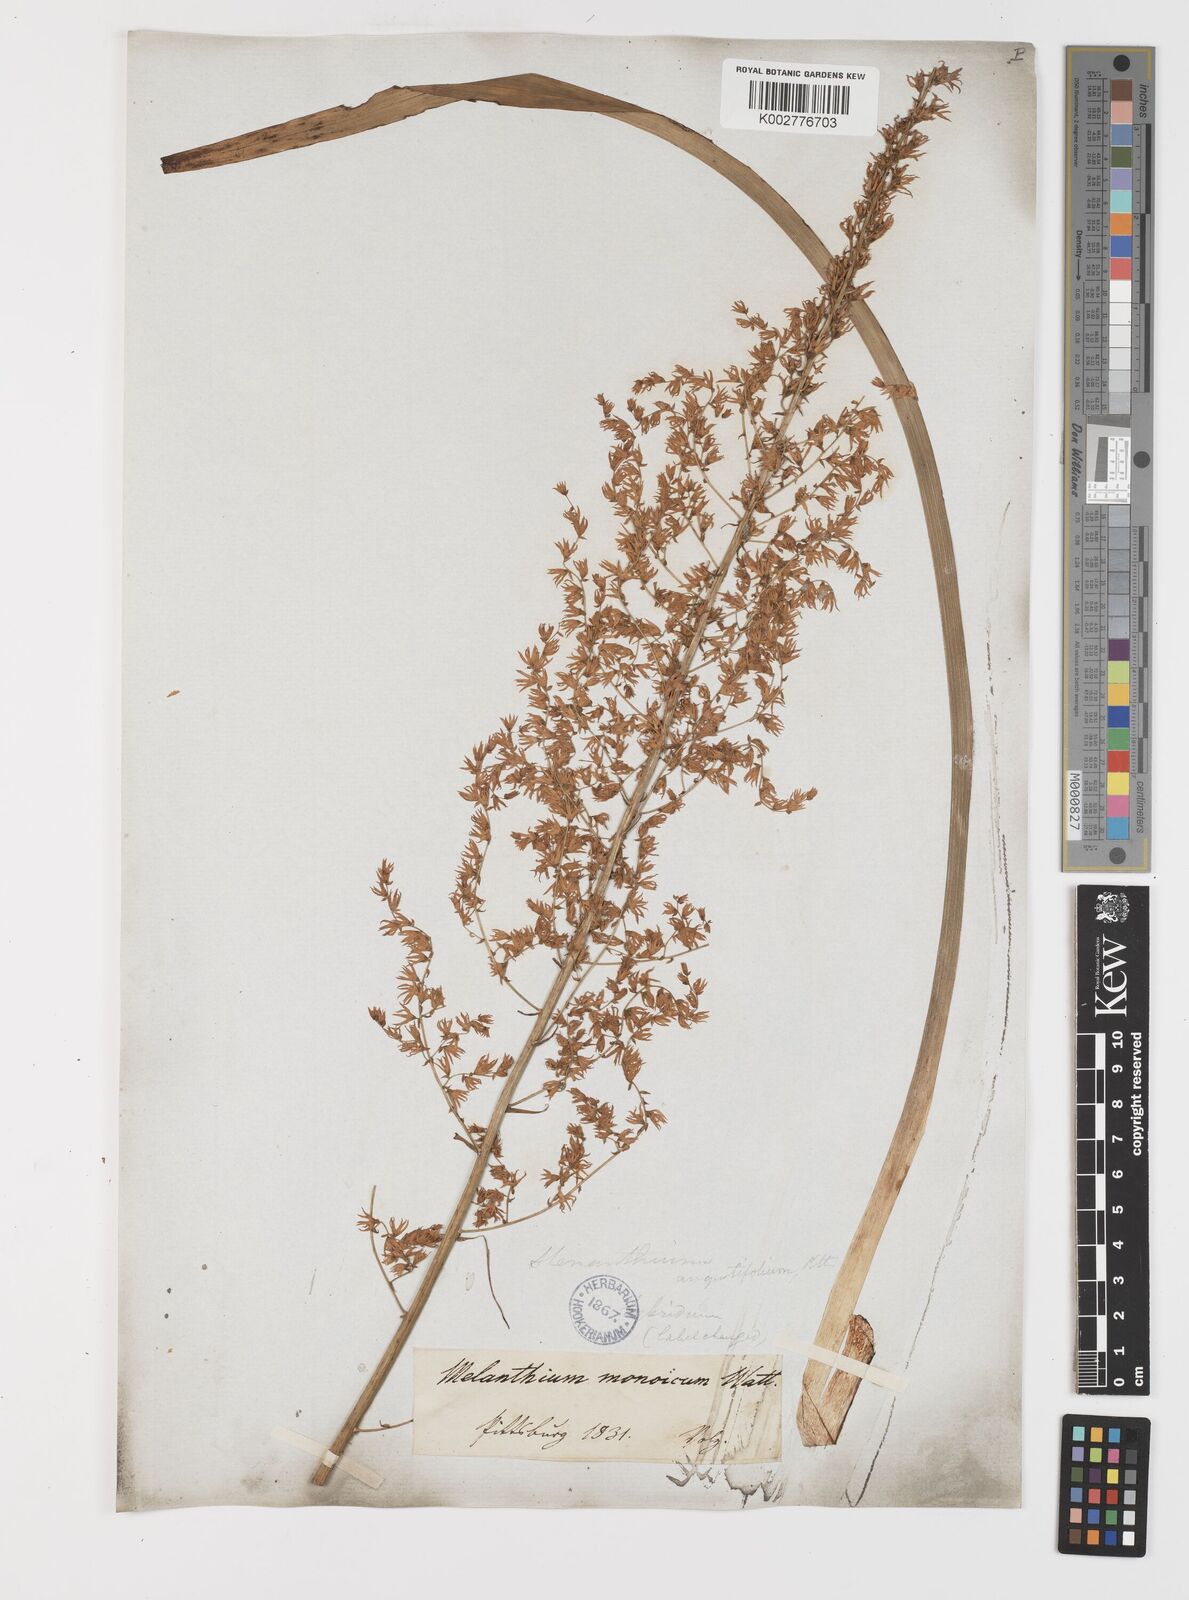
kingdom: Plantae
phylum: Tracheophyta
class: Liliopsida
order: Liliales
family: Melanthiaceae
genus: Stenanthium
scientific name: Stenanthium gramineum
